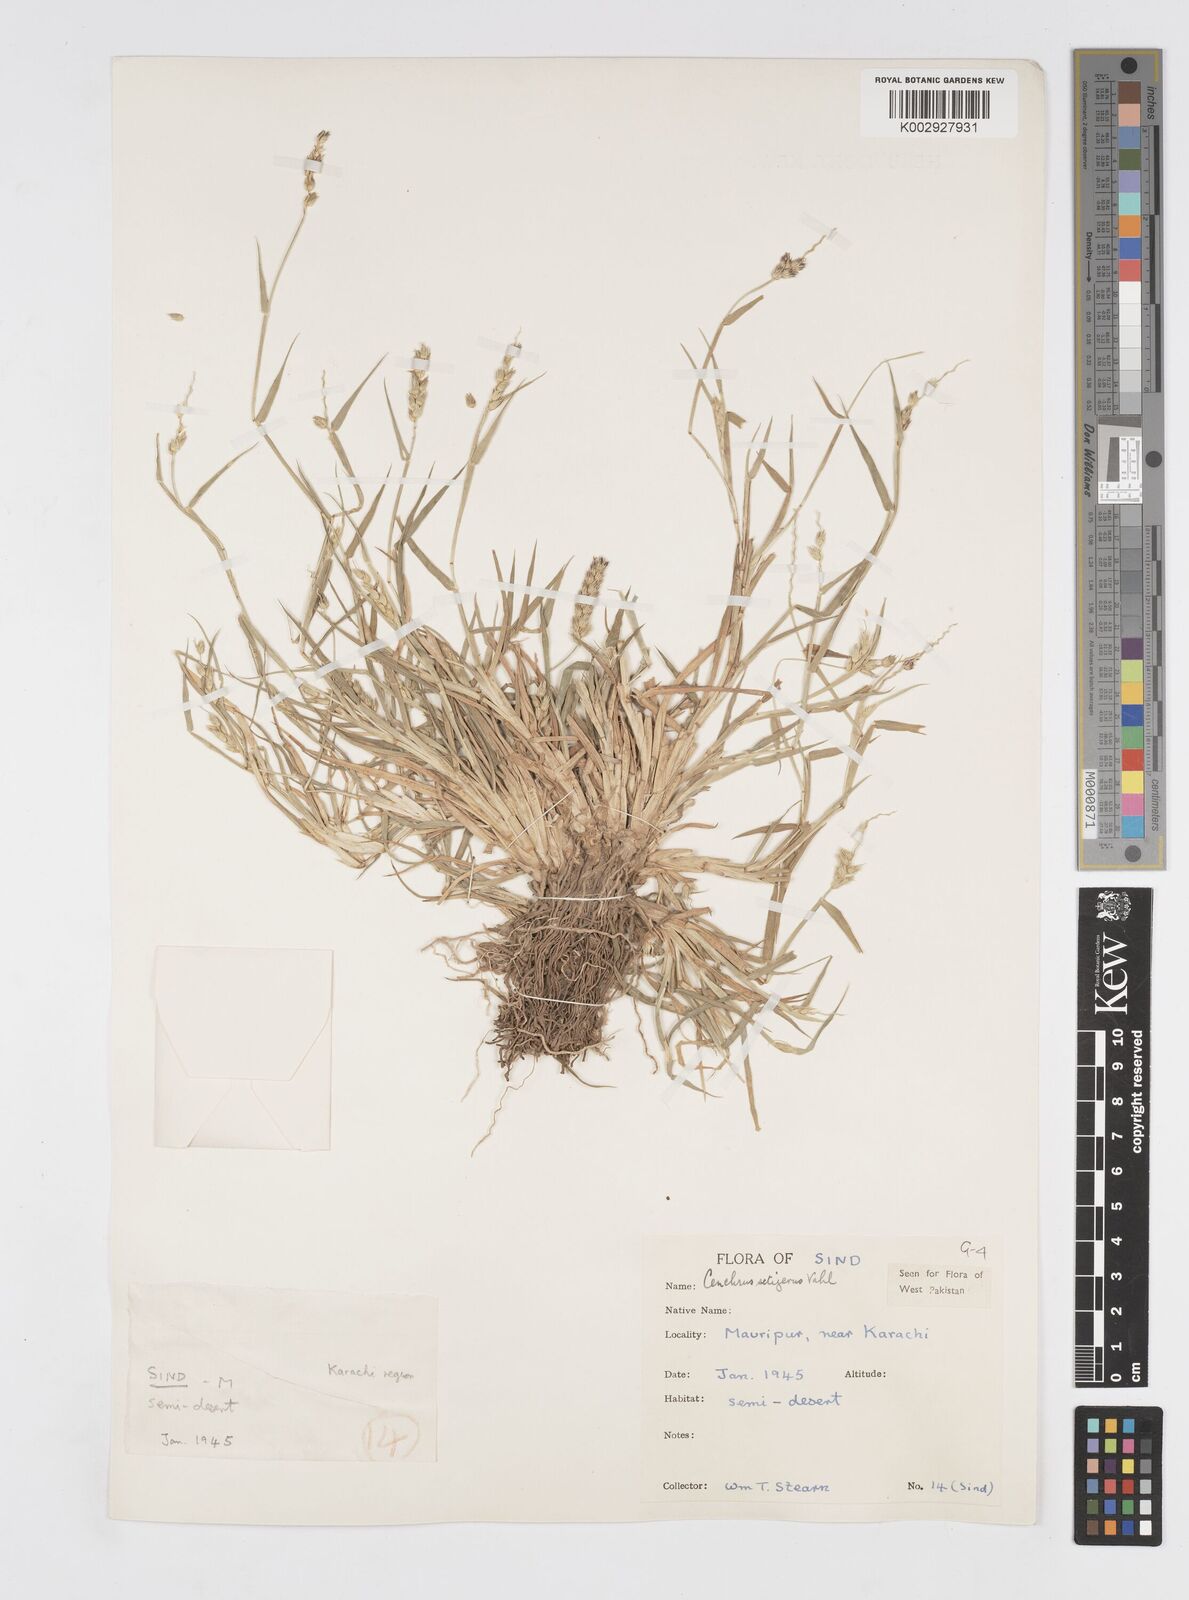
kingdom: Plantae
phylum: Tracheophyta
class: Liliopsida
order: Poales
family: Poaceae
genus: Cenchrus
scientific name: Cenchrus setigerus
